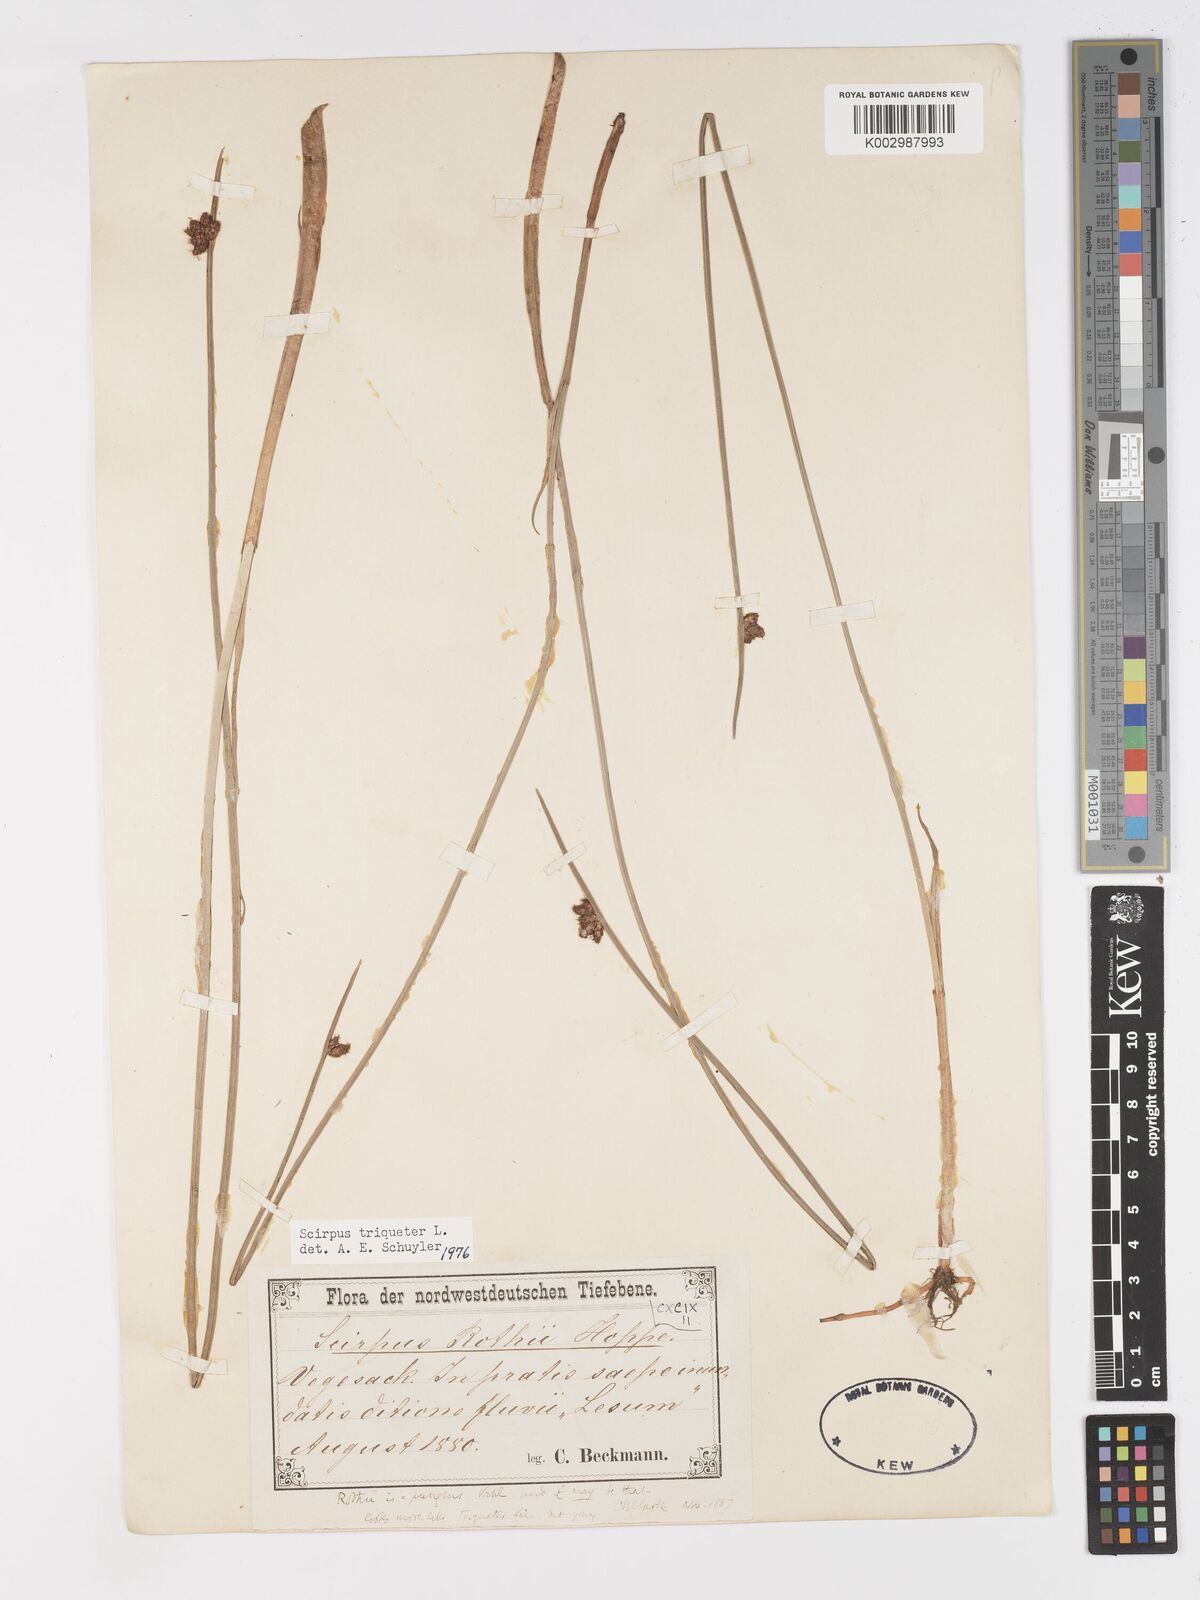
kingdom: Plantae
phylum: Tracheophyta
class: Liliopsida
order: Poales
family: Cyperaceae
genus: Schoenoplectus
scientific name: Schoenoplectus triqueter
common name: Triangular club-rush
